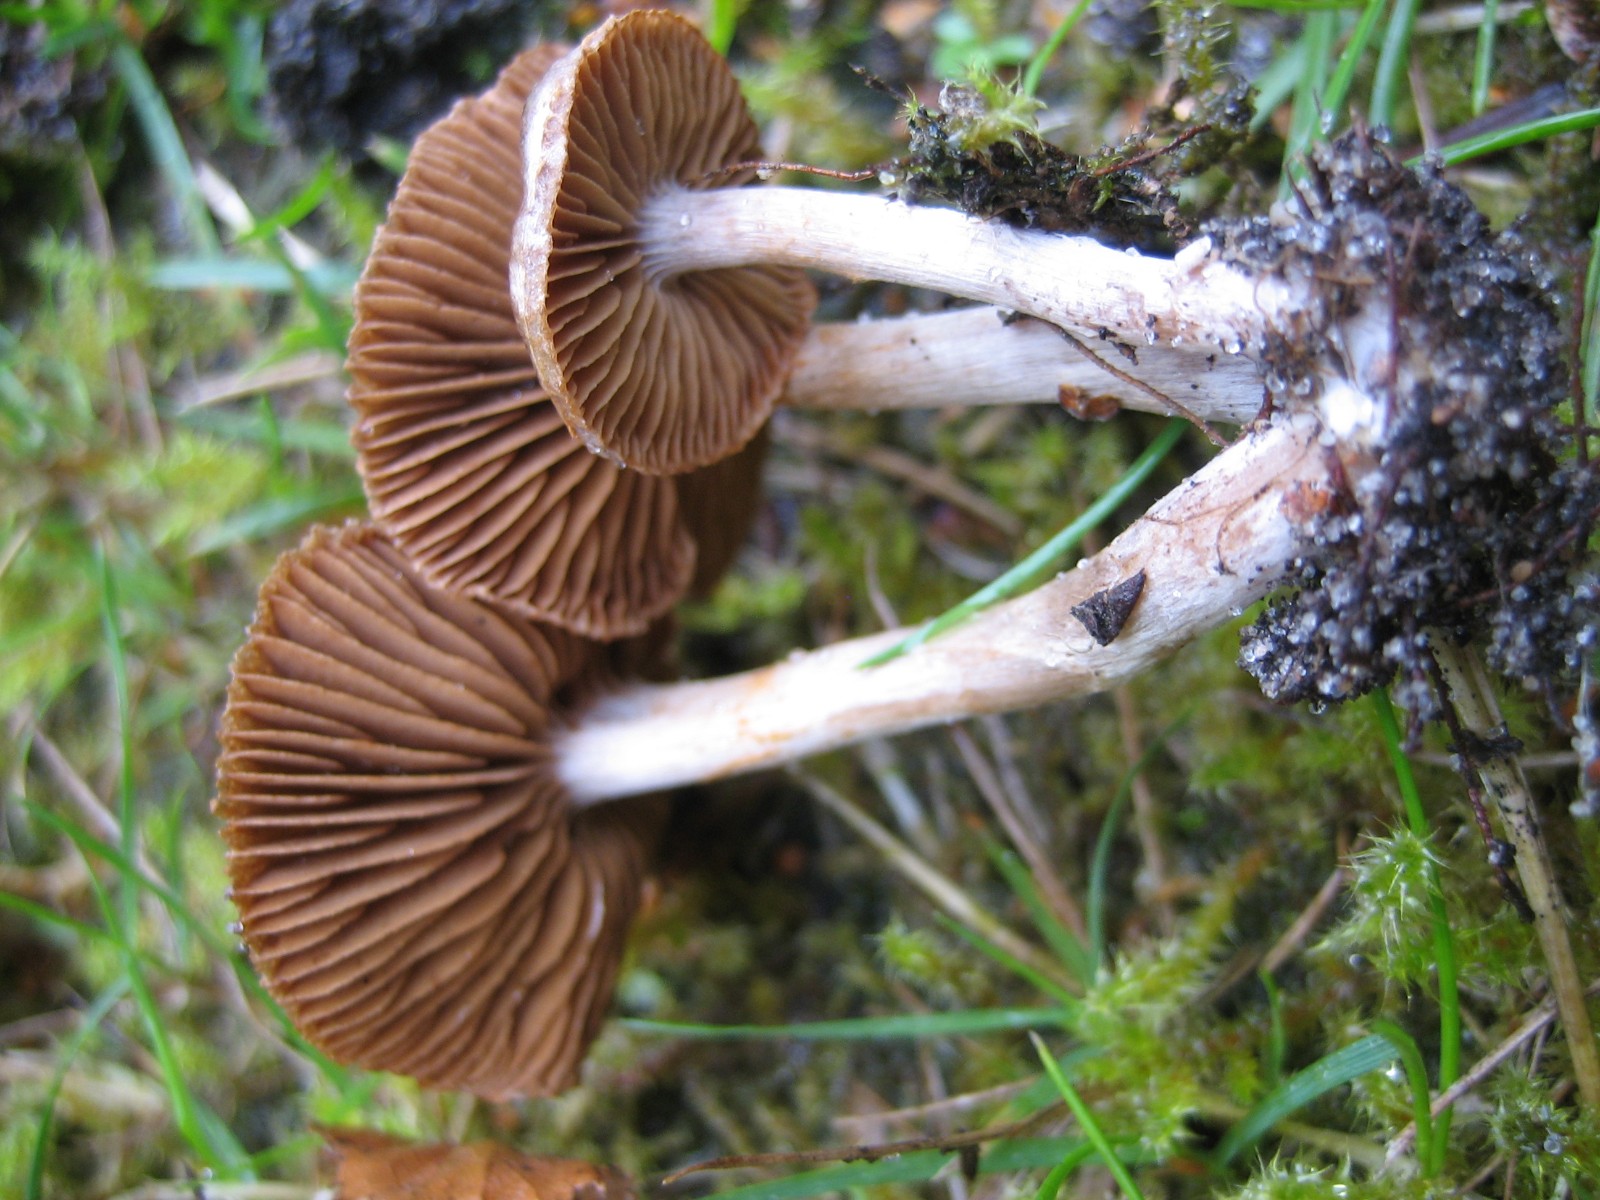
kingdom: Fungi
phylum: Basidiomycota
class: Agaricomycetes
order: Agaricales
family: Cortinariaceae
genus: Cortinarius
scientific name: Cortinarius
